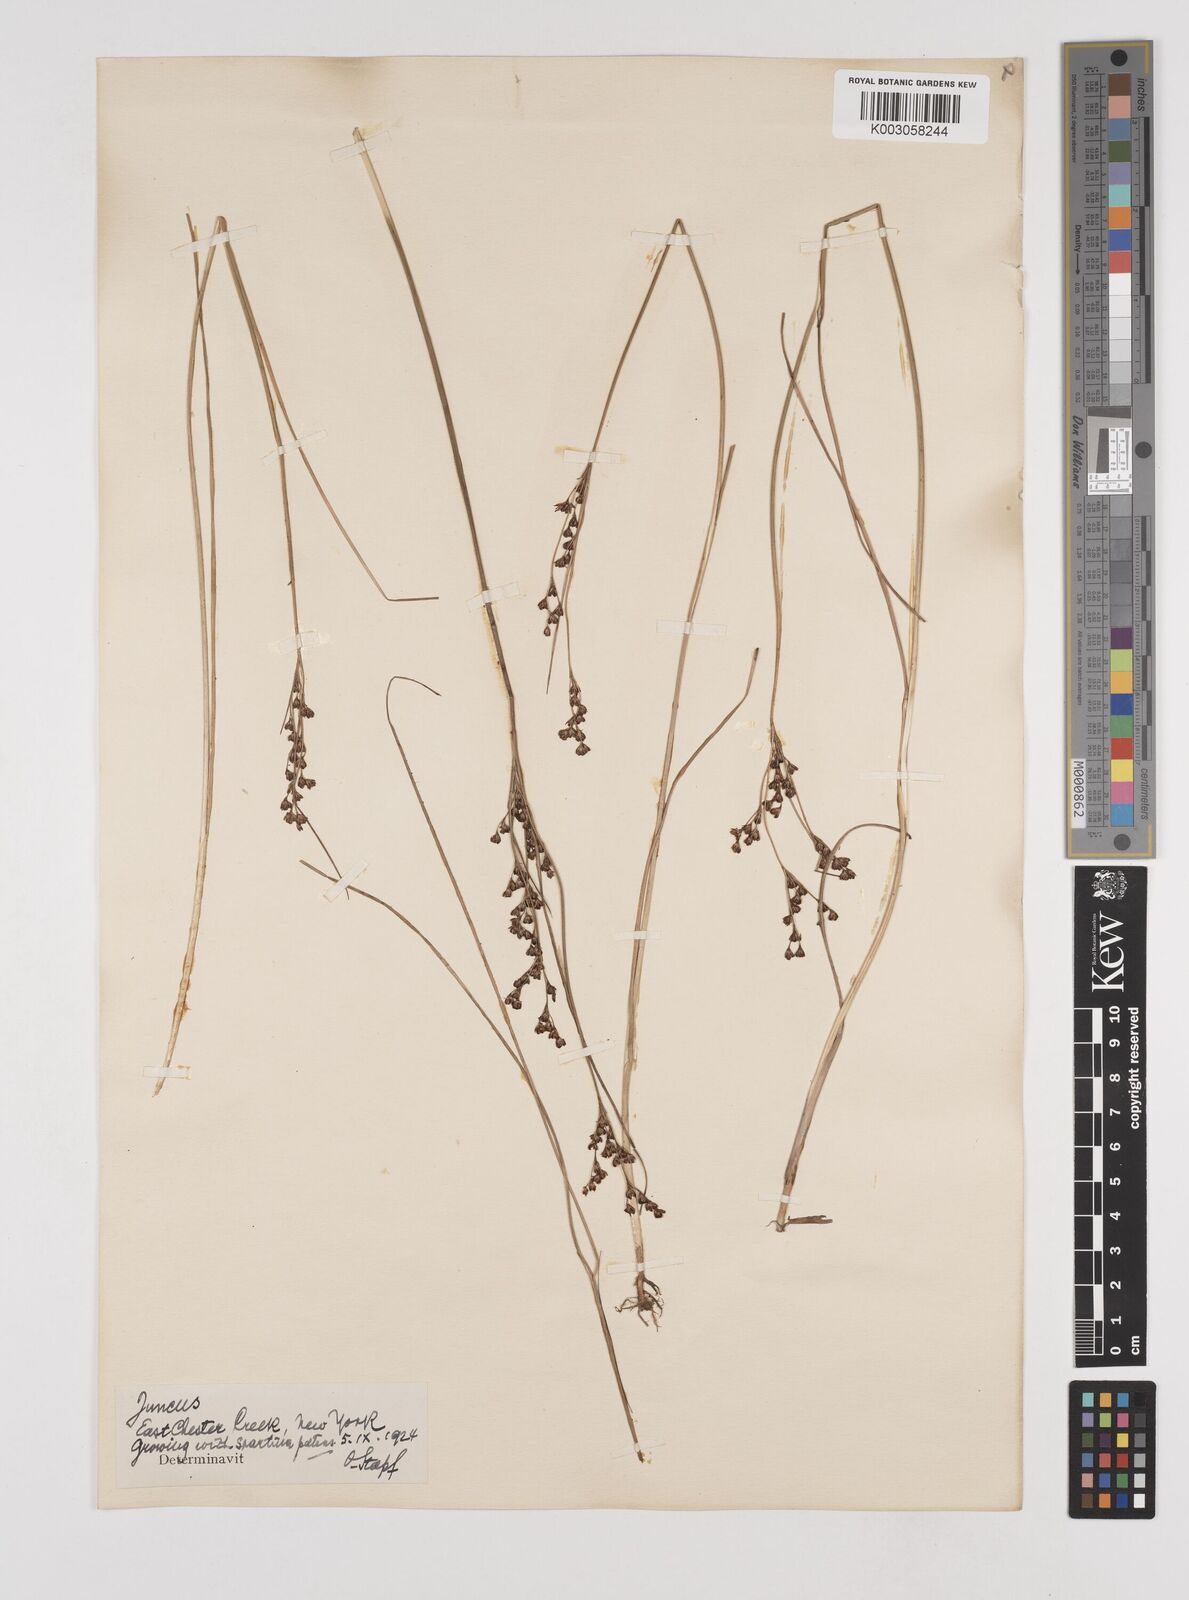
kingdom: Plantae
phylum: Tracheophyta
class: Liliopsida
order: Poales
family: Juncaceae
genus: Juncus
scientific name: Juncus
